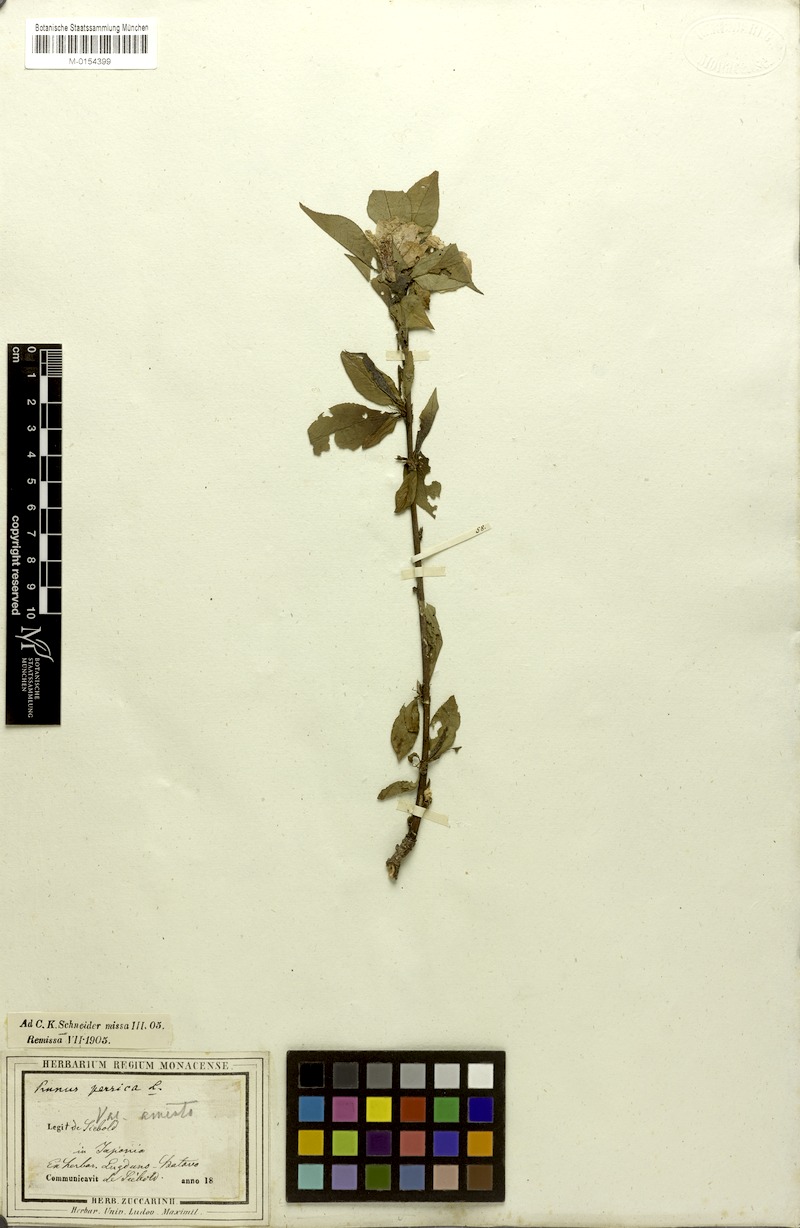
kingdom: Plantae
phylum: Tracheophyta
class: Magnoliopsida
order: Rosales
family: Rosaceae
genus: Prunus
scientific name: Prunus persica
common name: Peach
